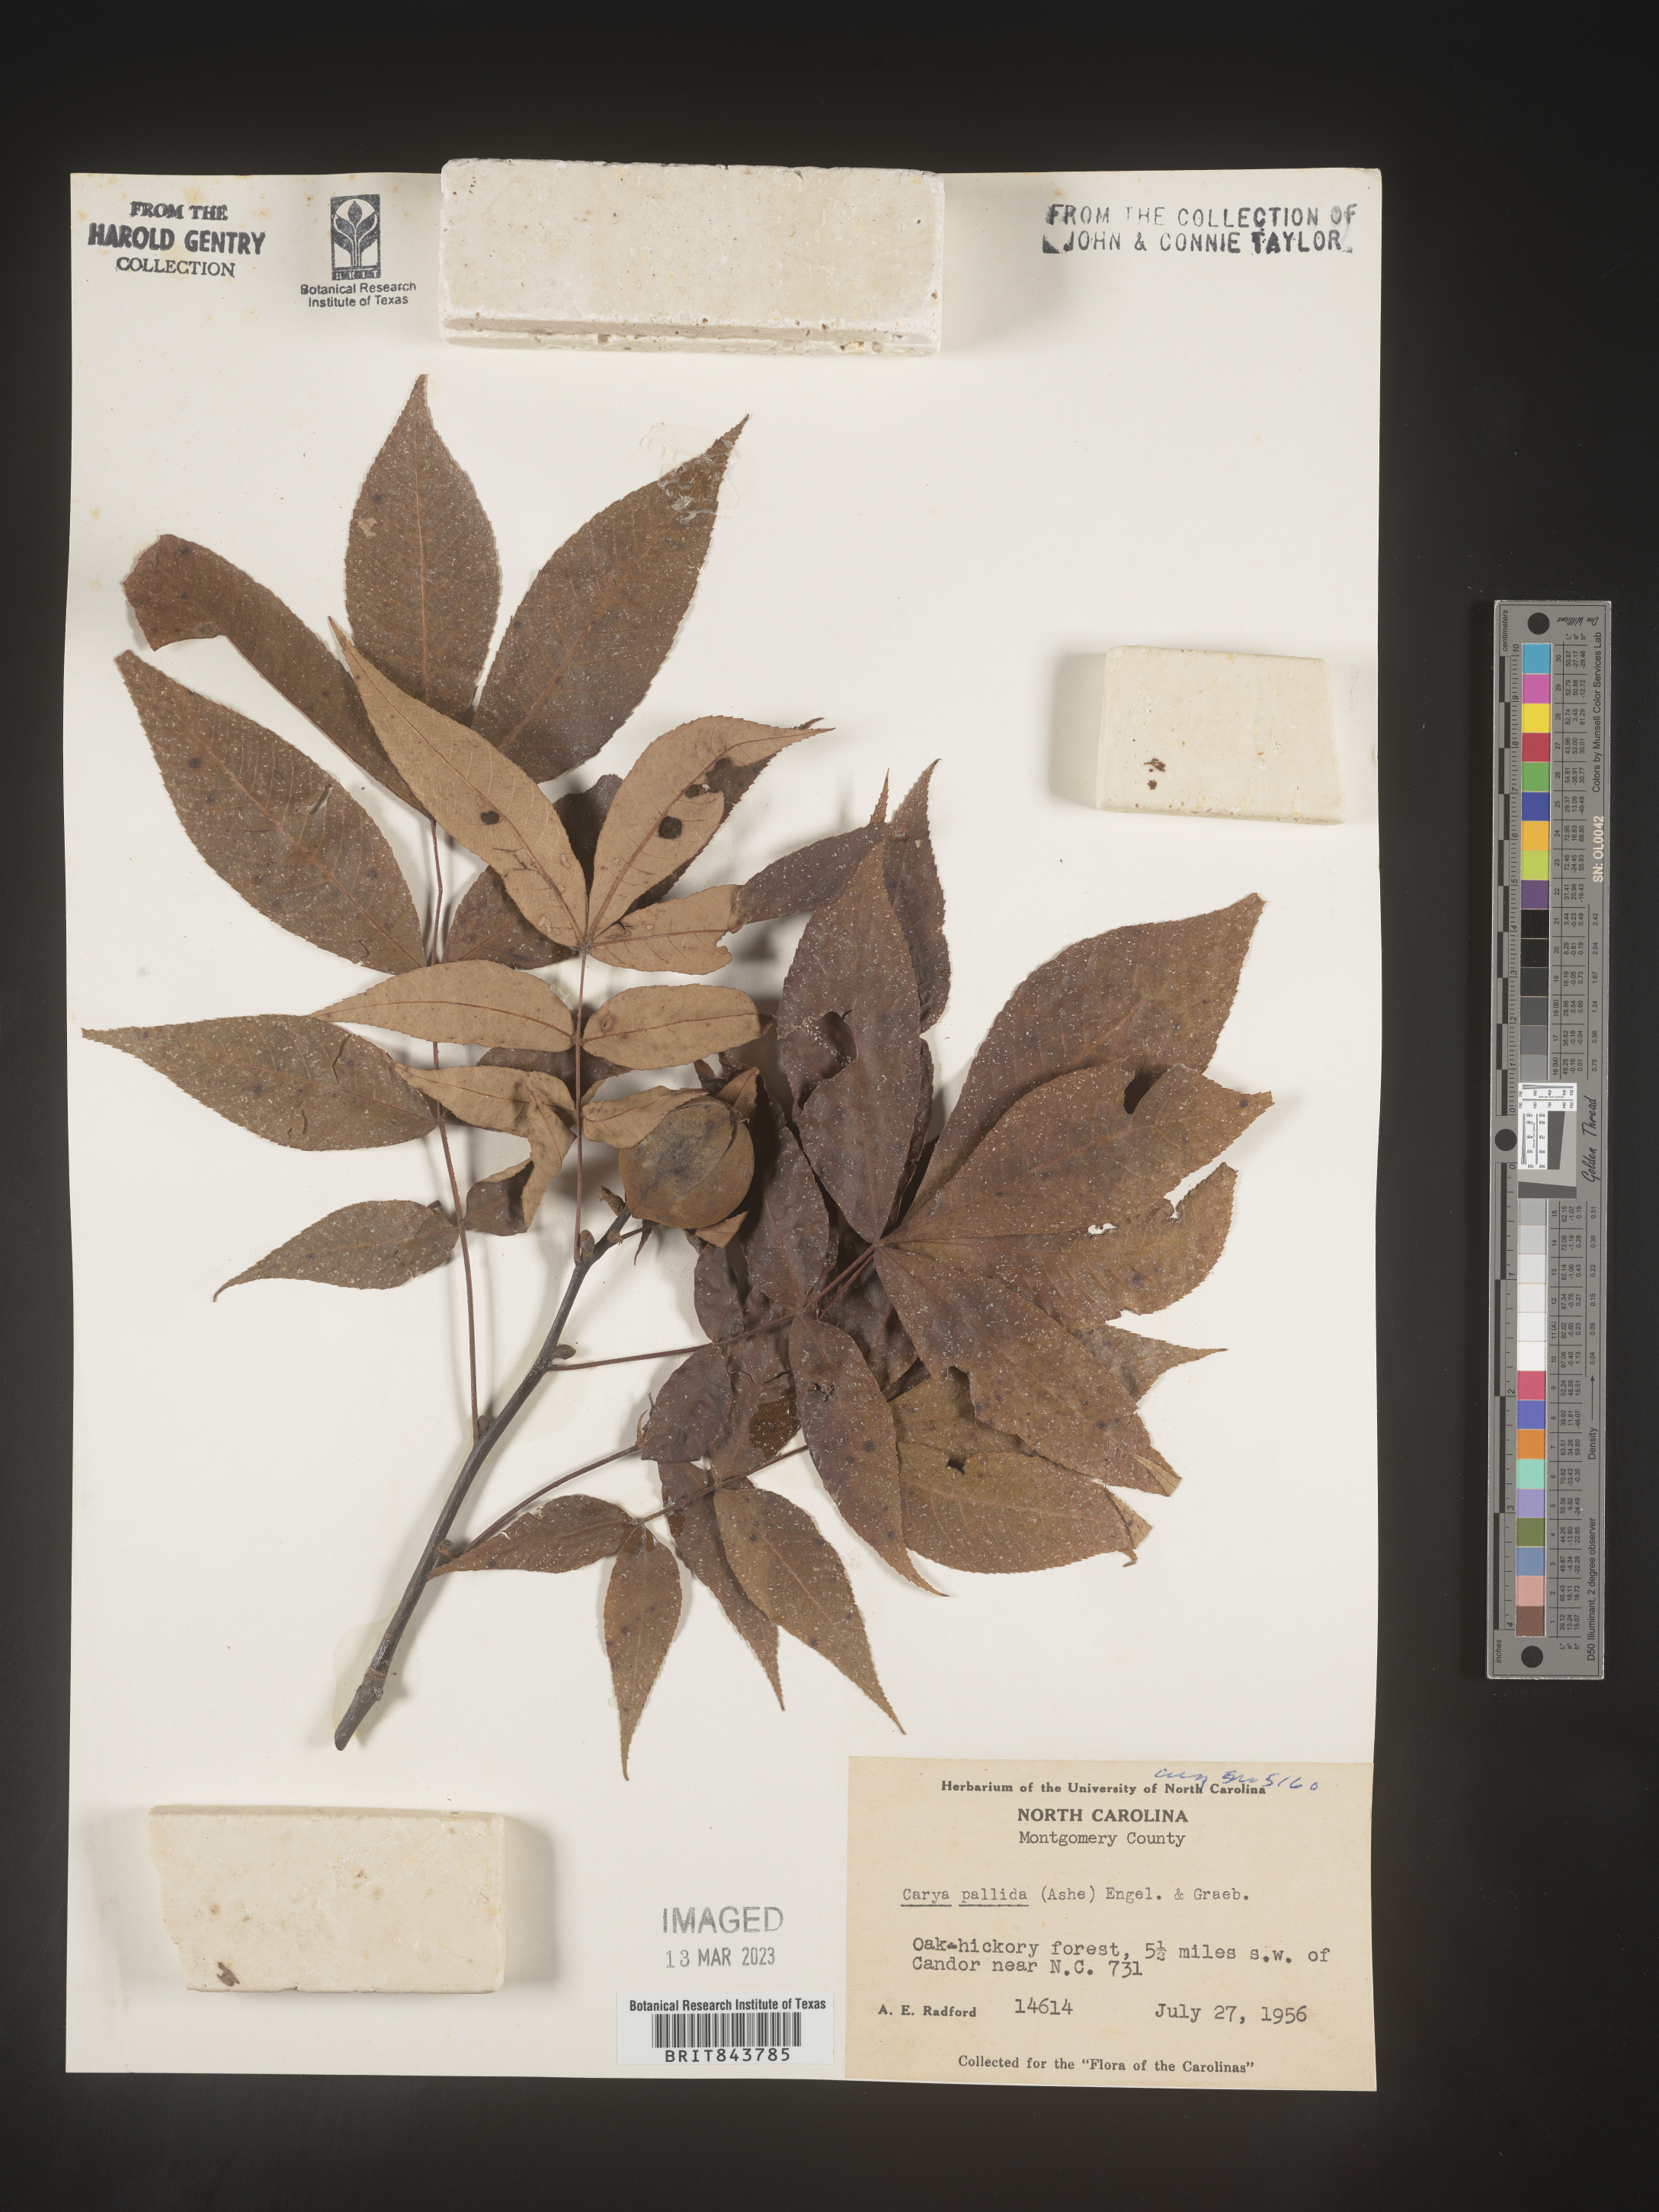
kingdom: Plantae
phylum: Tracheophyta
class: Magnoliopsida
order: Fagales
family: Juglandaceae
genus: Carya
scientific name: Carya pallida
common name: Sand hickory
